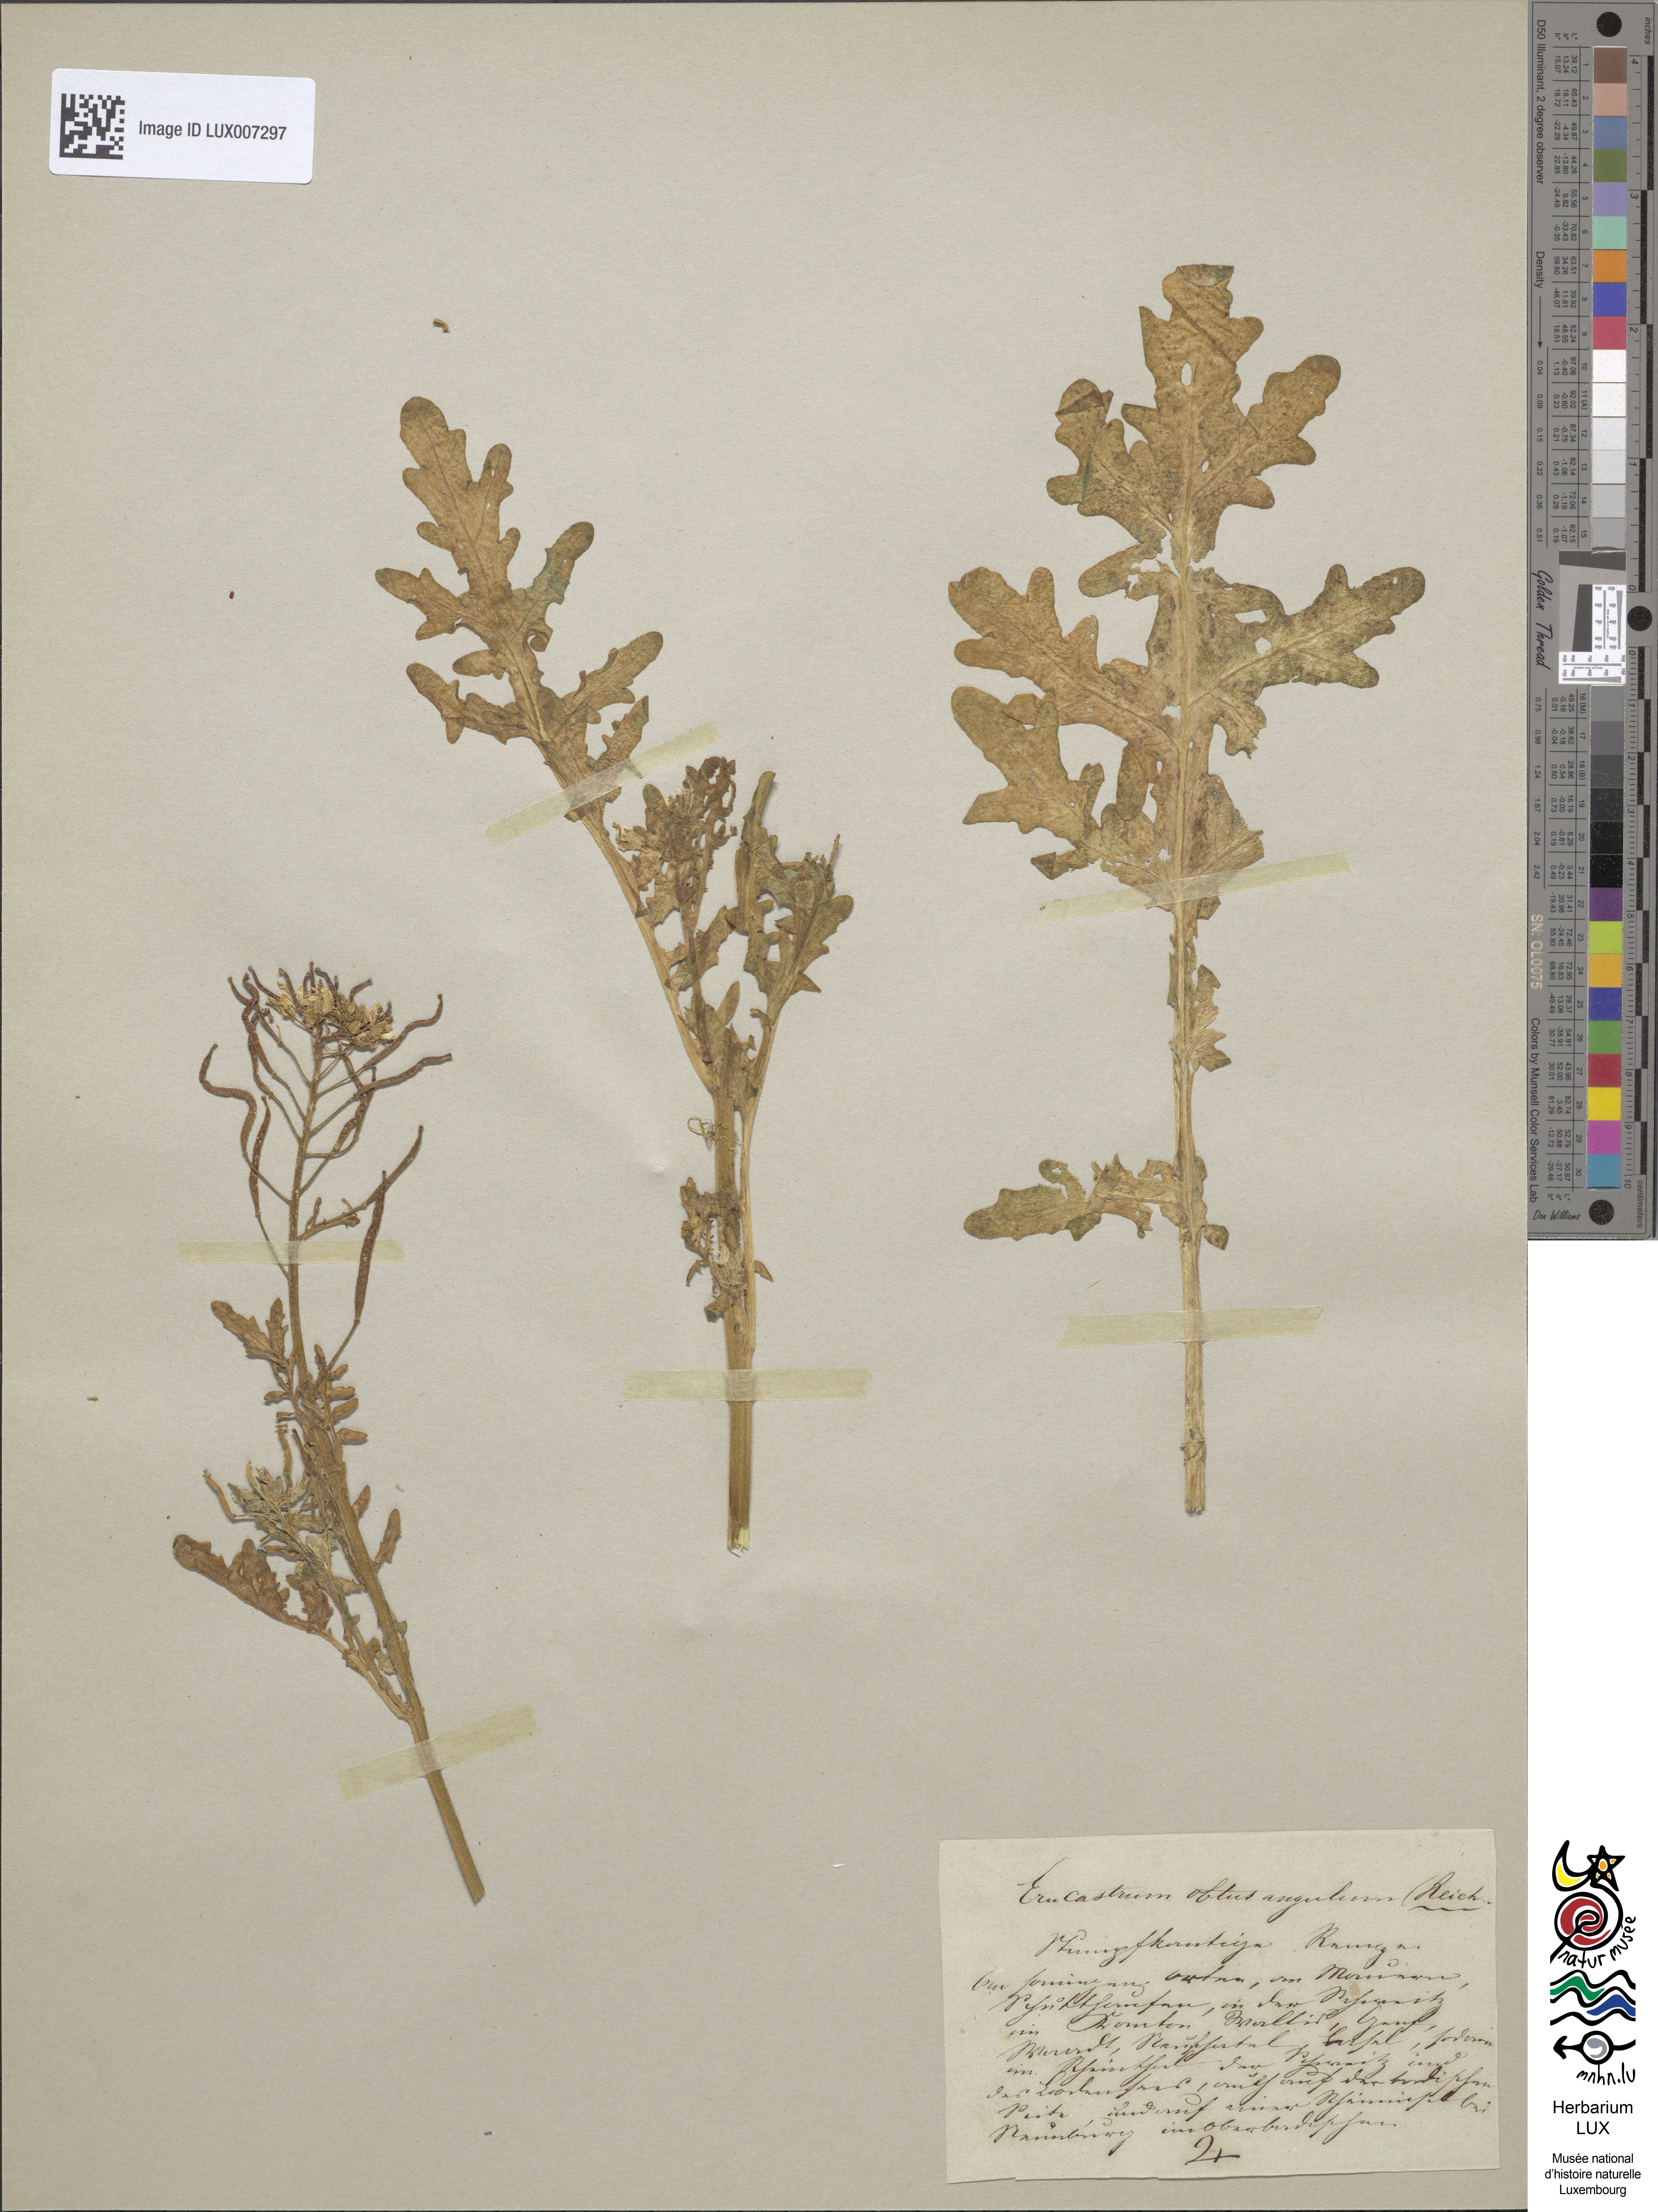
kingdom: Plantae
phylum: Tracheophyta
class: Magnoliopsida
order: Brassicales
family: Brassicaceae
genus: Erucastrum
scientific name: Erucastrum nasturtiifolium
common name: Watercress-leaf rocket
